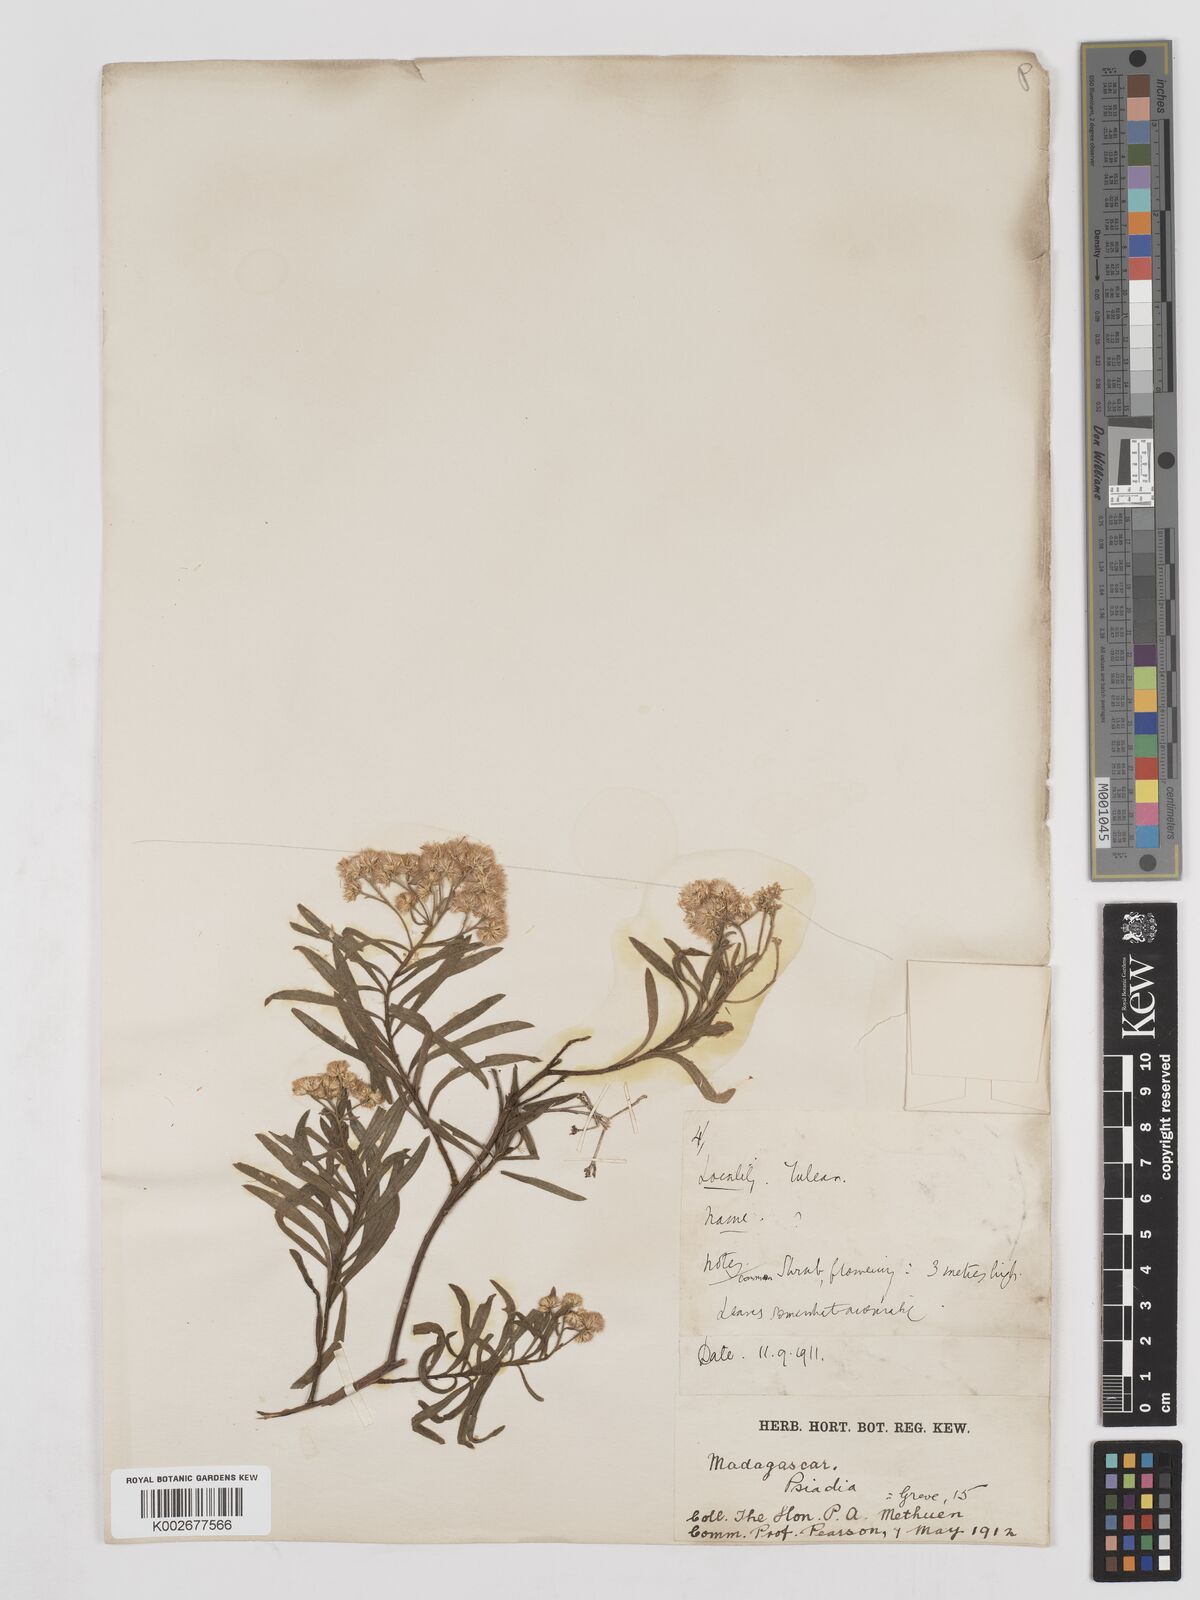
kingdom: Plantae
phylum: Tracheophyta
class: Magnoliopsida
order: Asterales
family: Asteraceae
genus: Psiadia
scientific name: Psiadia
